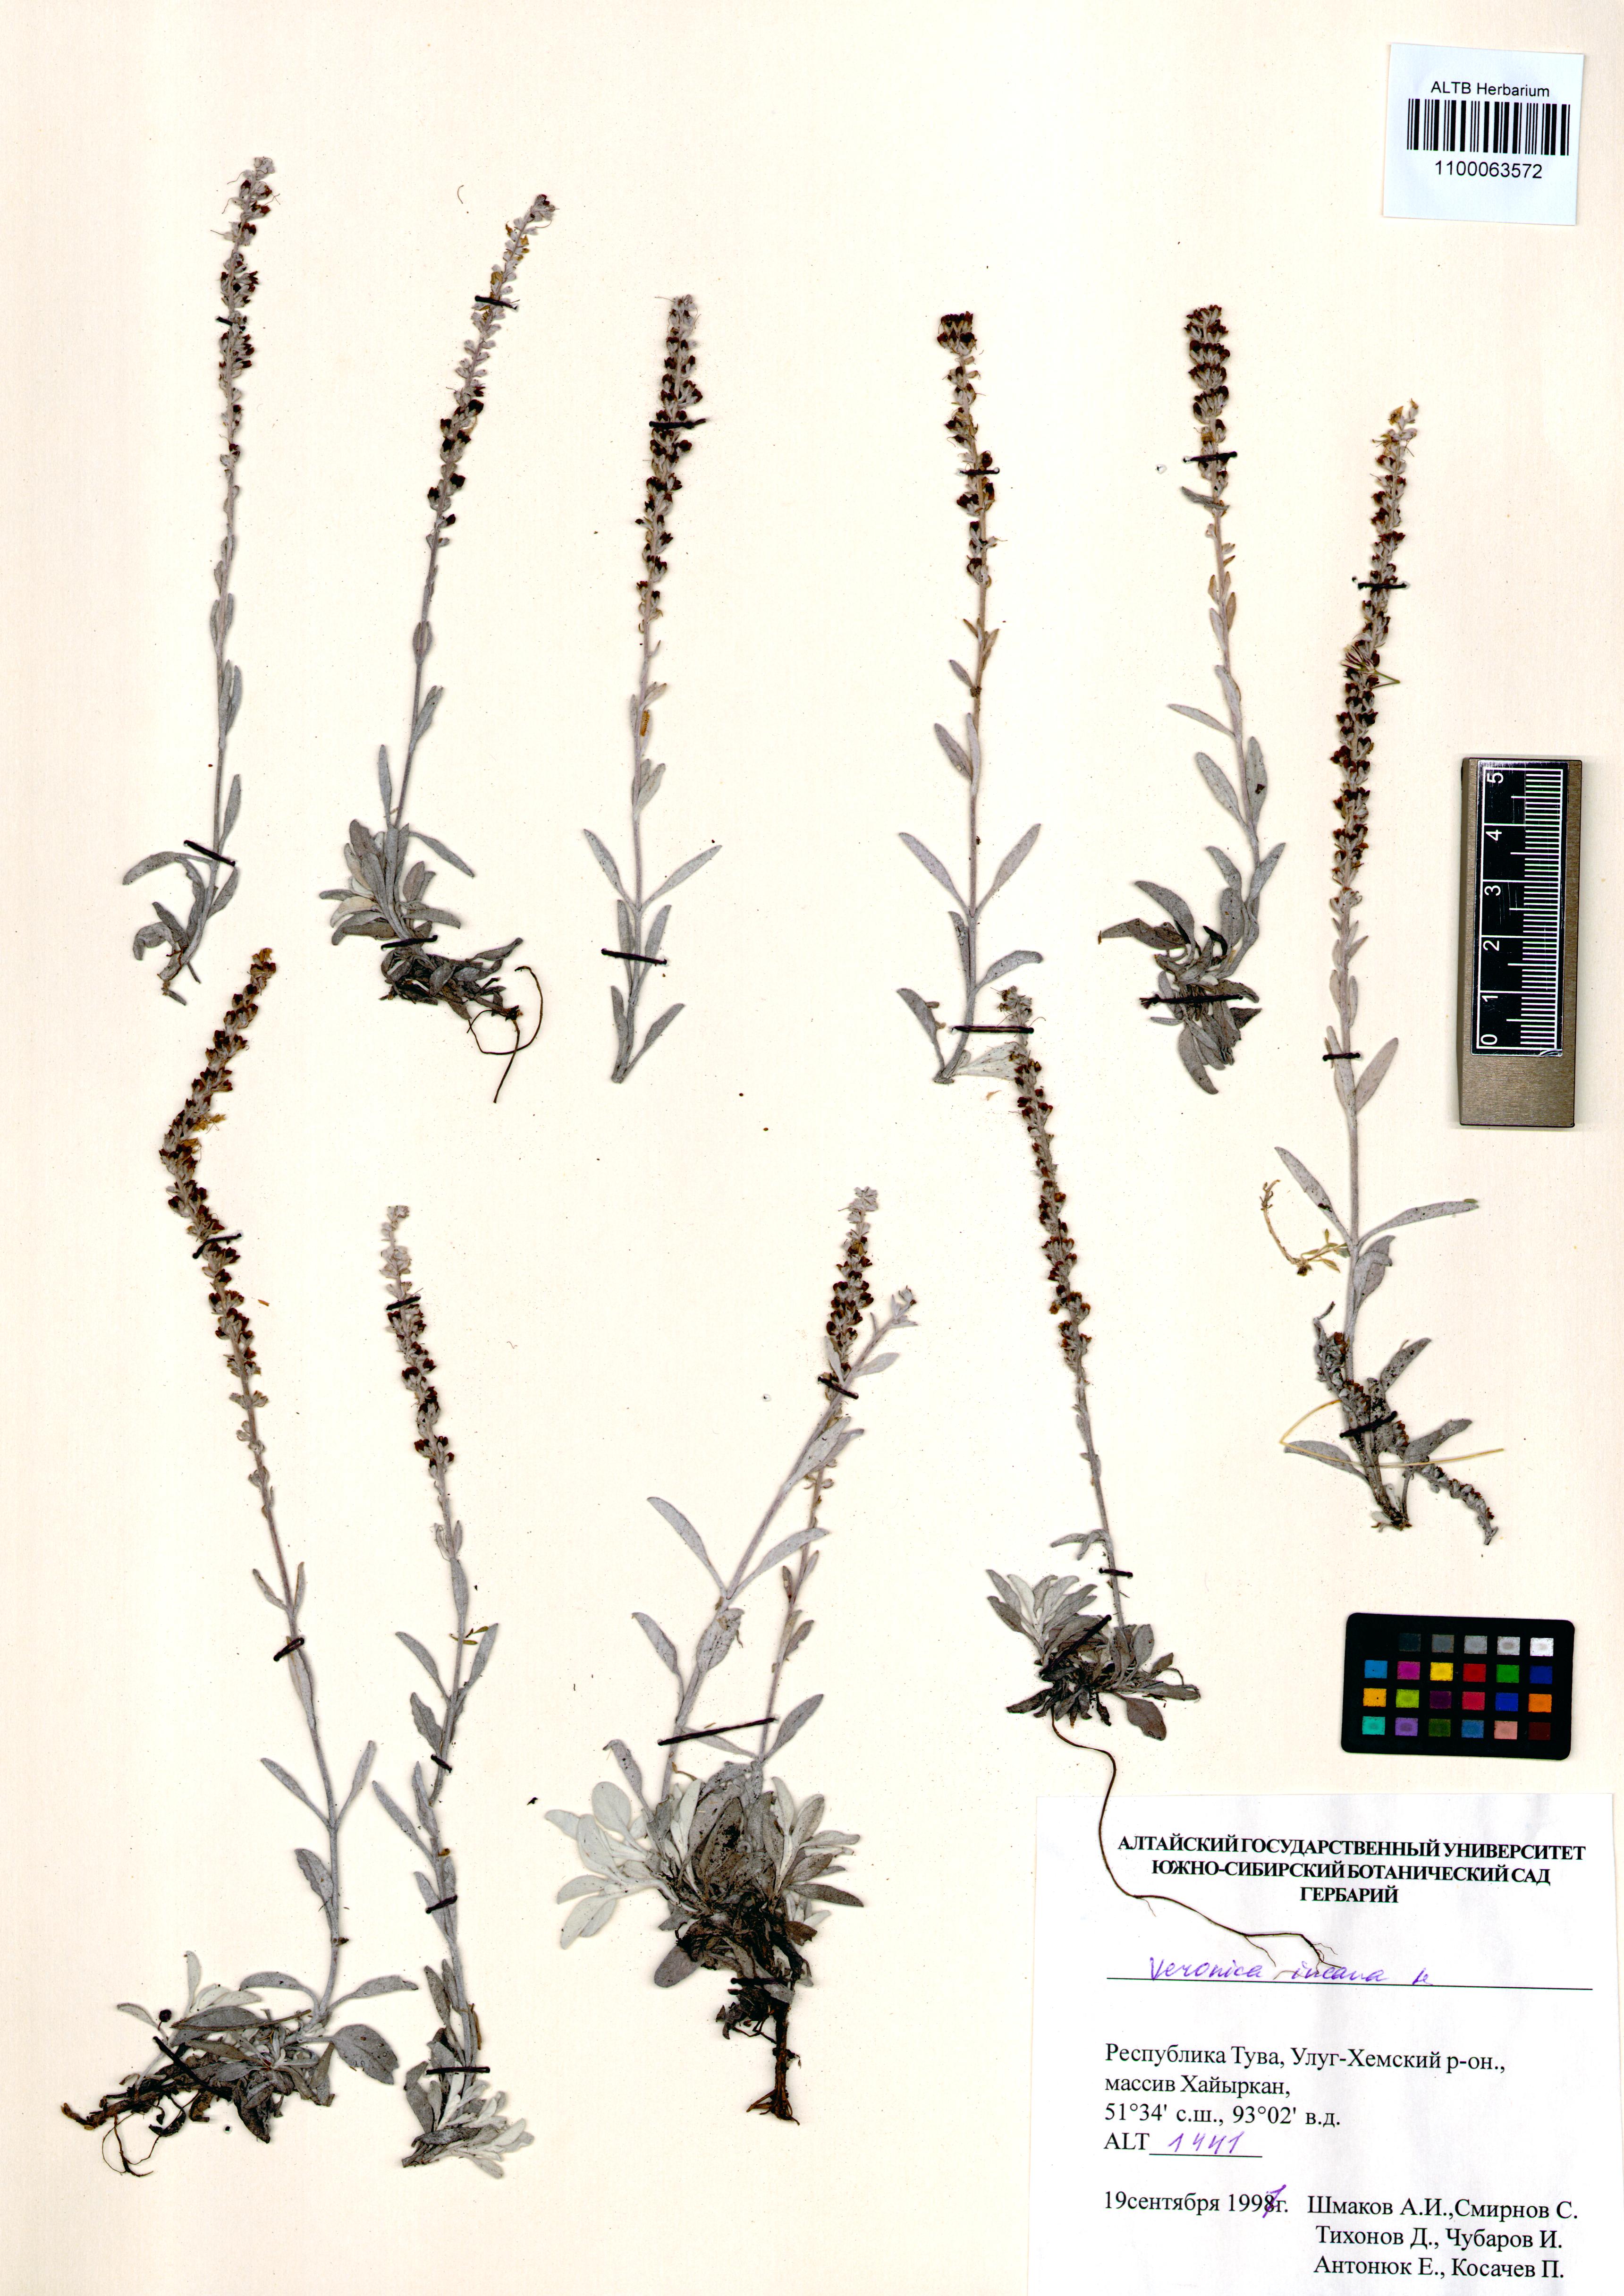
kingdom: Plantae
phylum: Tracheophyta
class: Magnoliopsida
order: Lamiales
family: Plantaginaceae
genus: Veronica
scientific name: Veronica incana
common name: Silver speedwell
